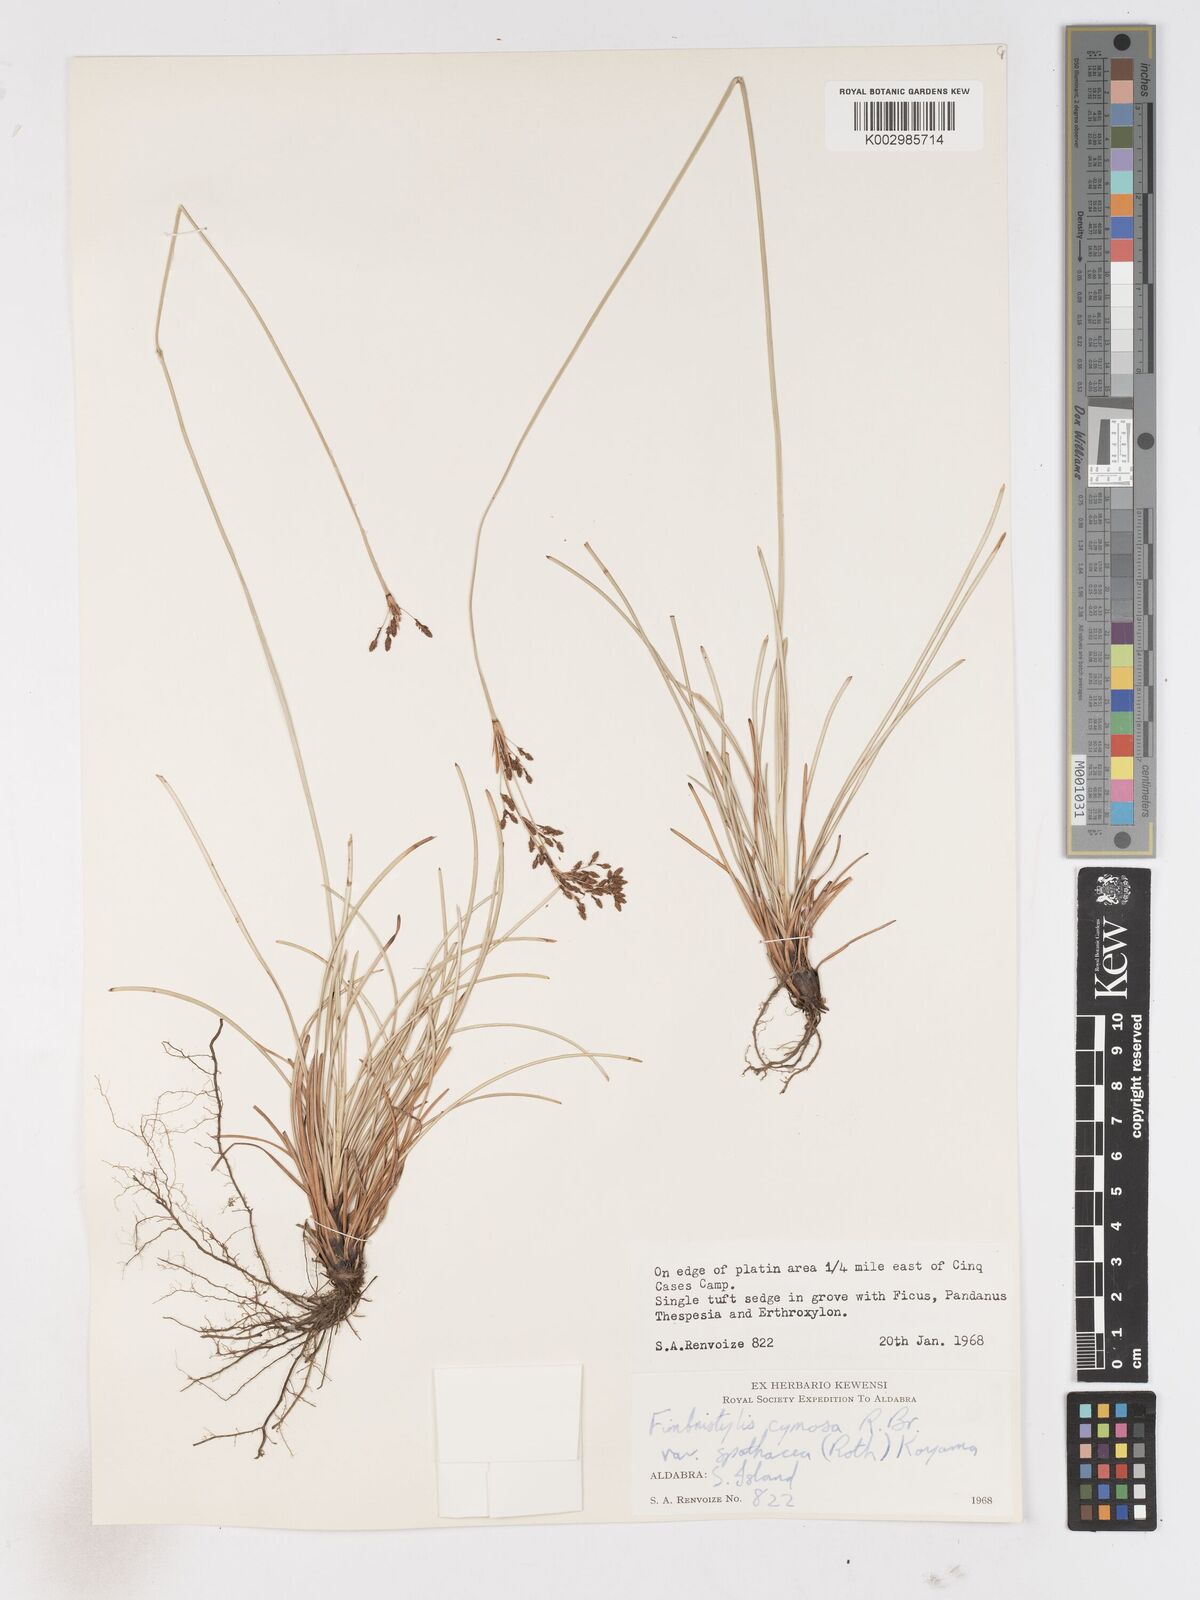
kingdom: Plantae
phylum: Tracheophyta
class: Liliopsida
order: Poales
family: Cyperaceae
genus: Fimbristylis
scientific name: Fimbristylis cymosa
